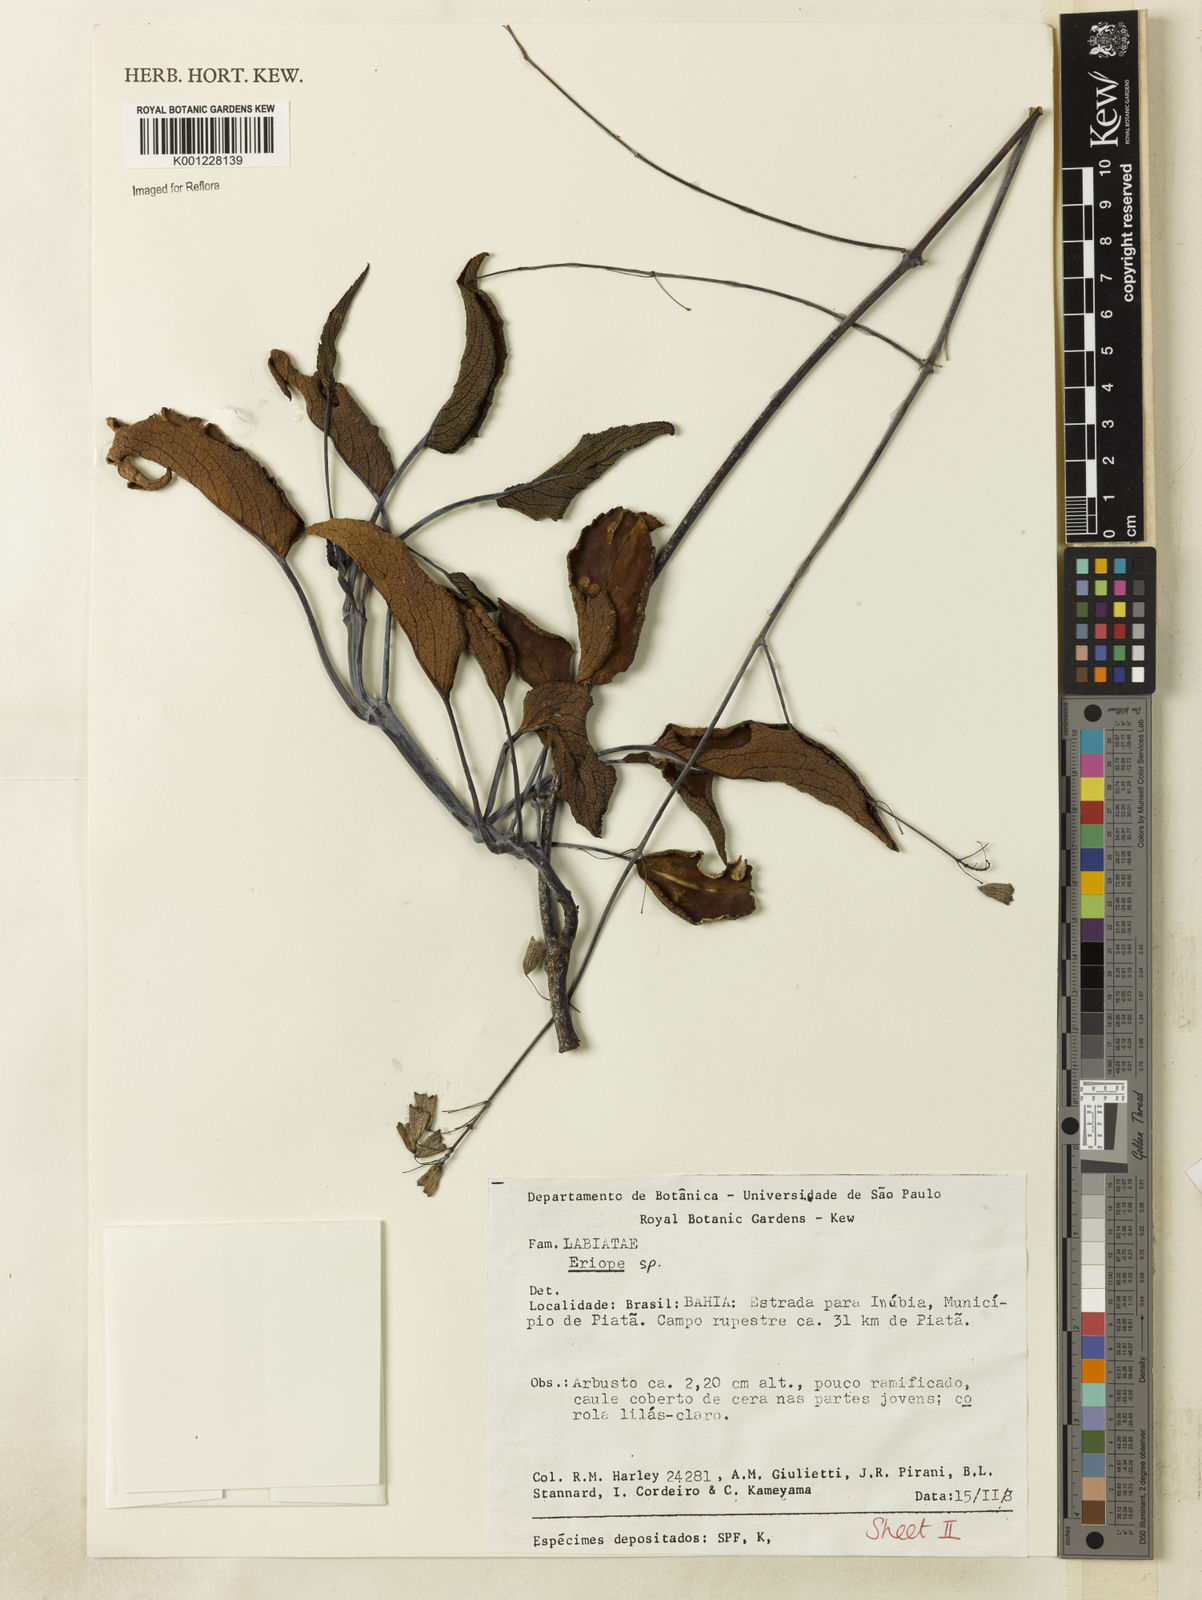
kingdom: Plantae
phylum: Tracheophyta
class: Magnoliopsida
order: Lamiales
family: Lamiaceae
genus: Eriope
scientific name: Eriope
